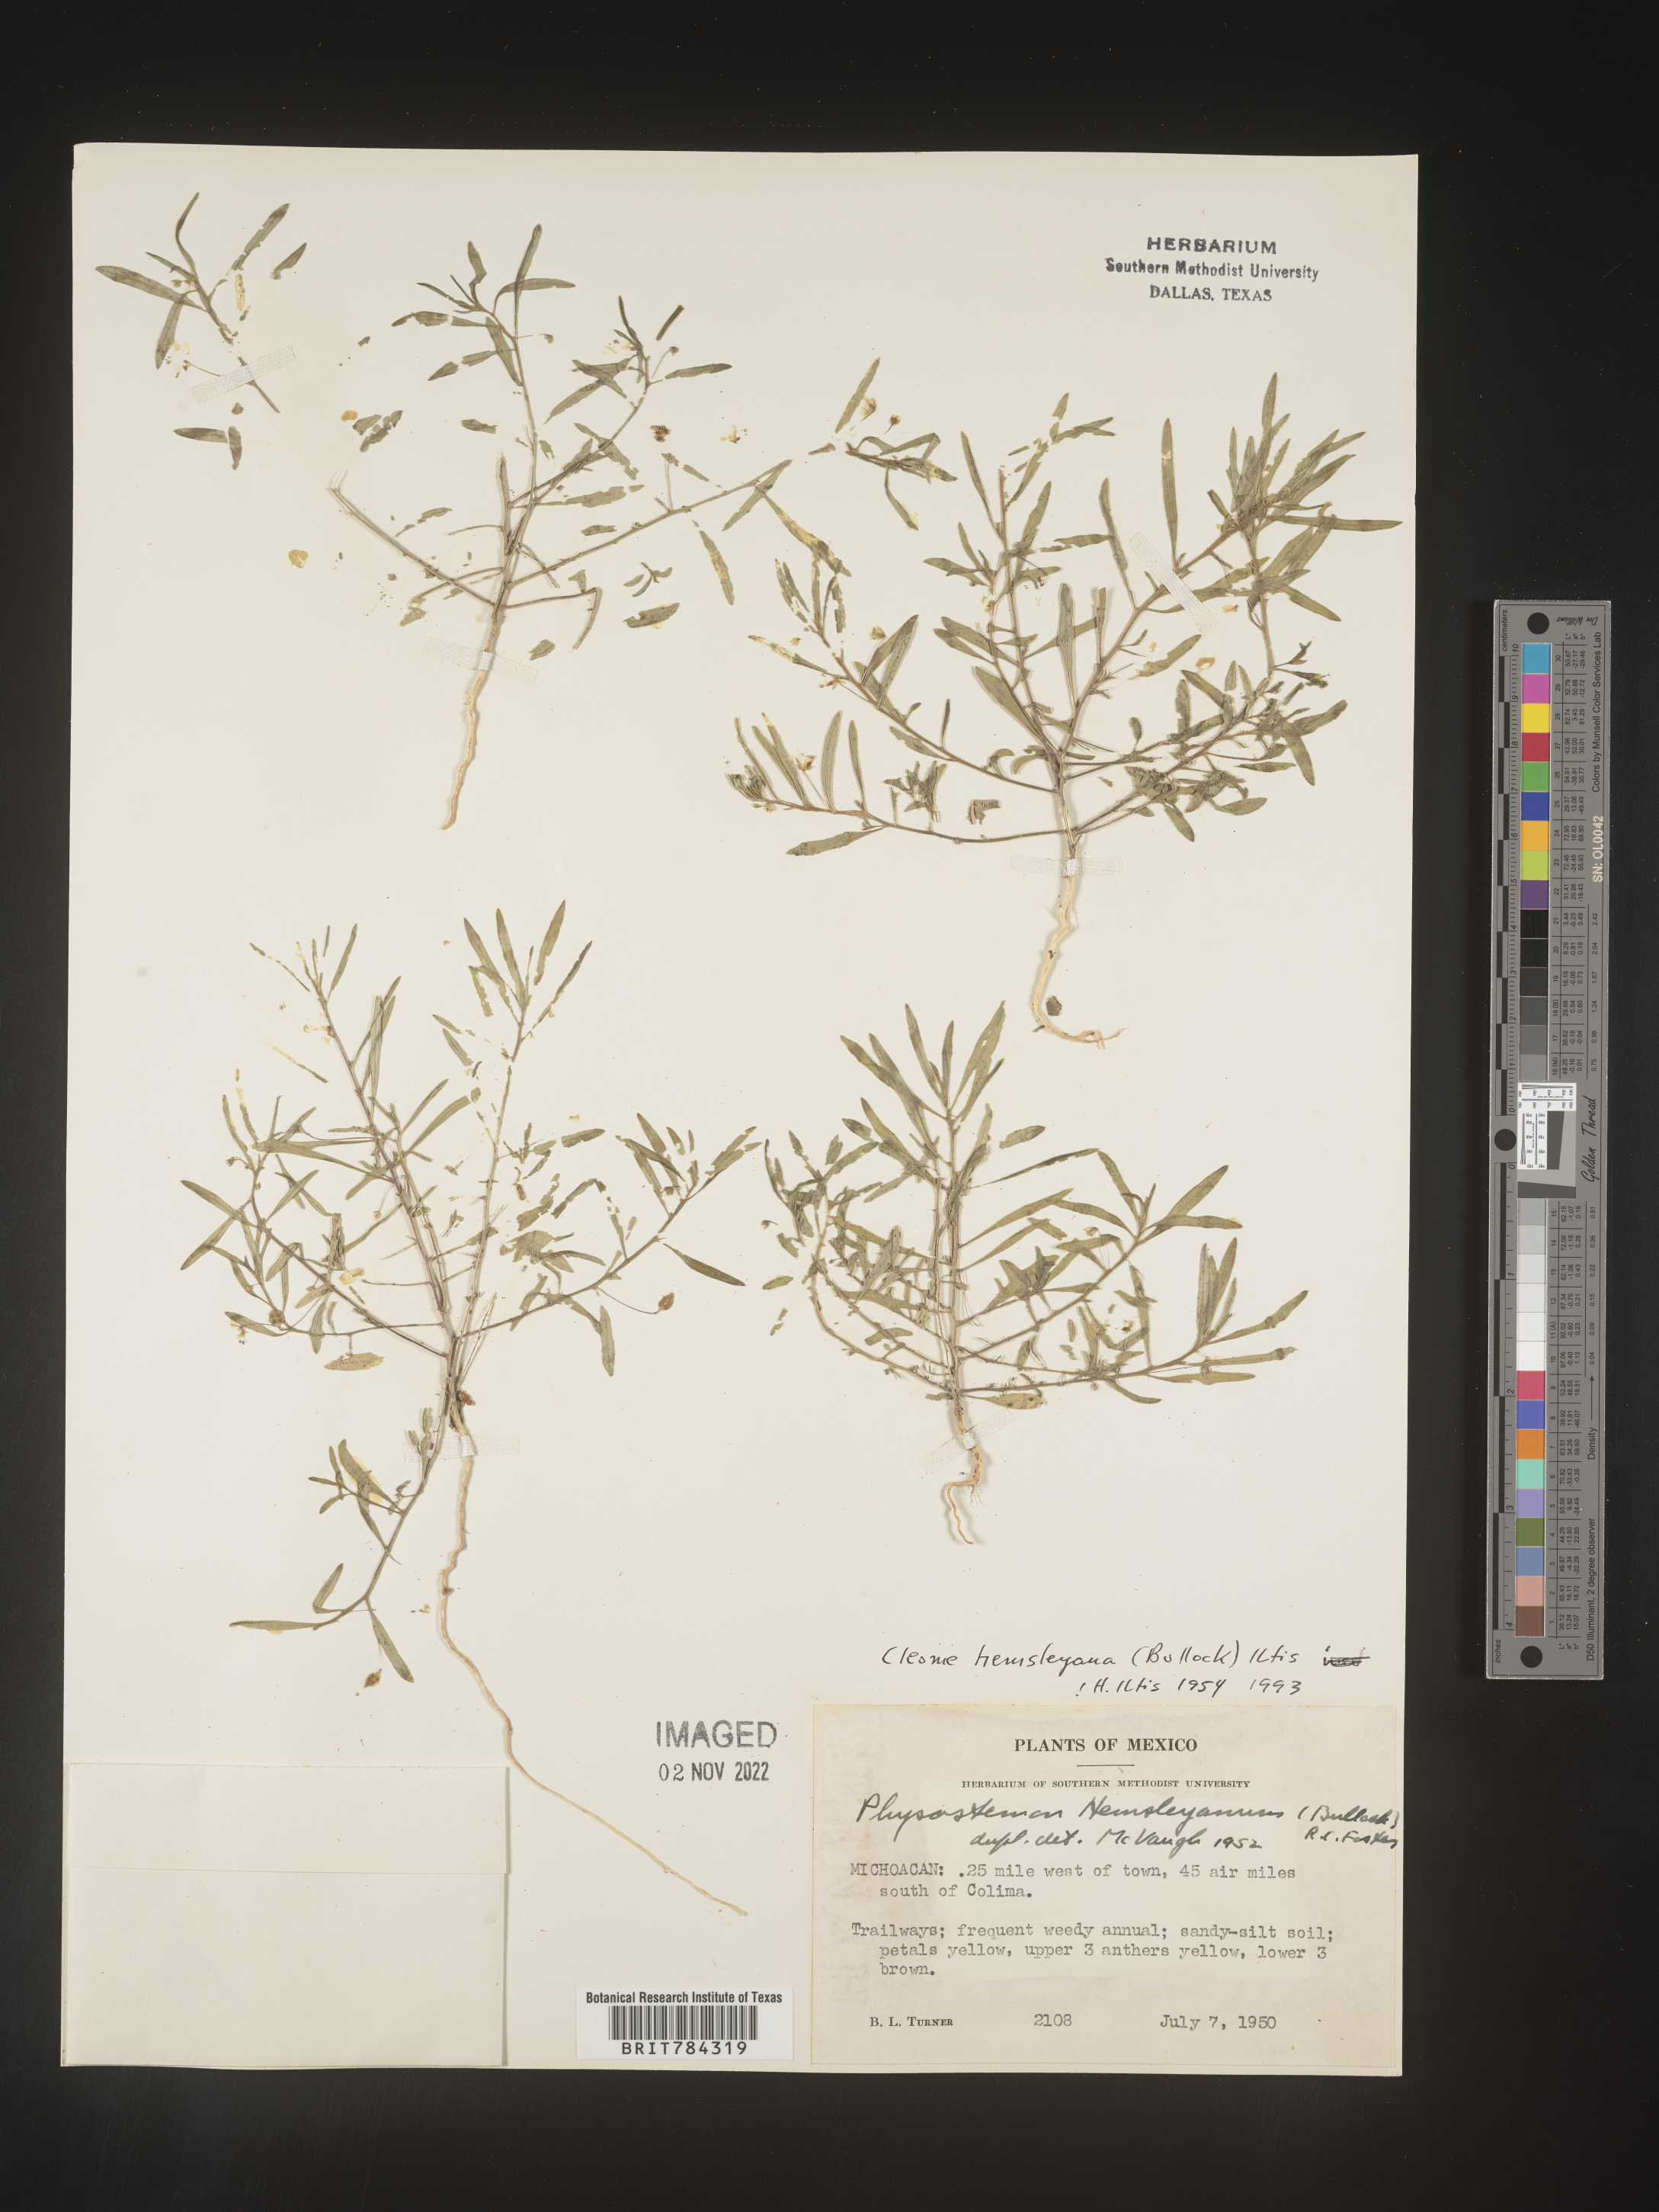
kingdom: Plantae
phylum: Tracheophyta
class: Magnoliopsida
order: Brassicales
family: Cleomaceae
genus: Cleome
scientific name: Cleome
